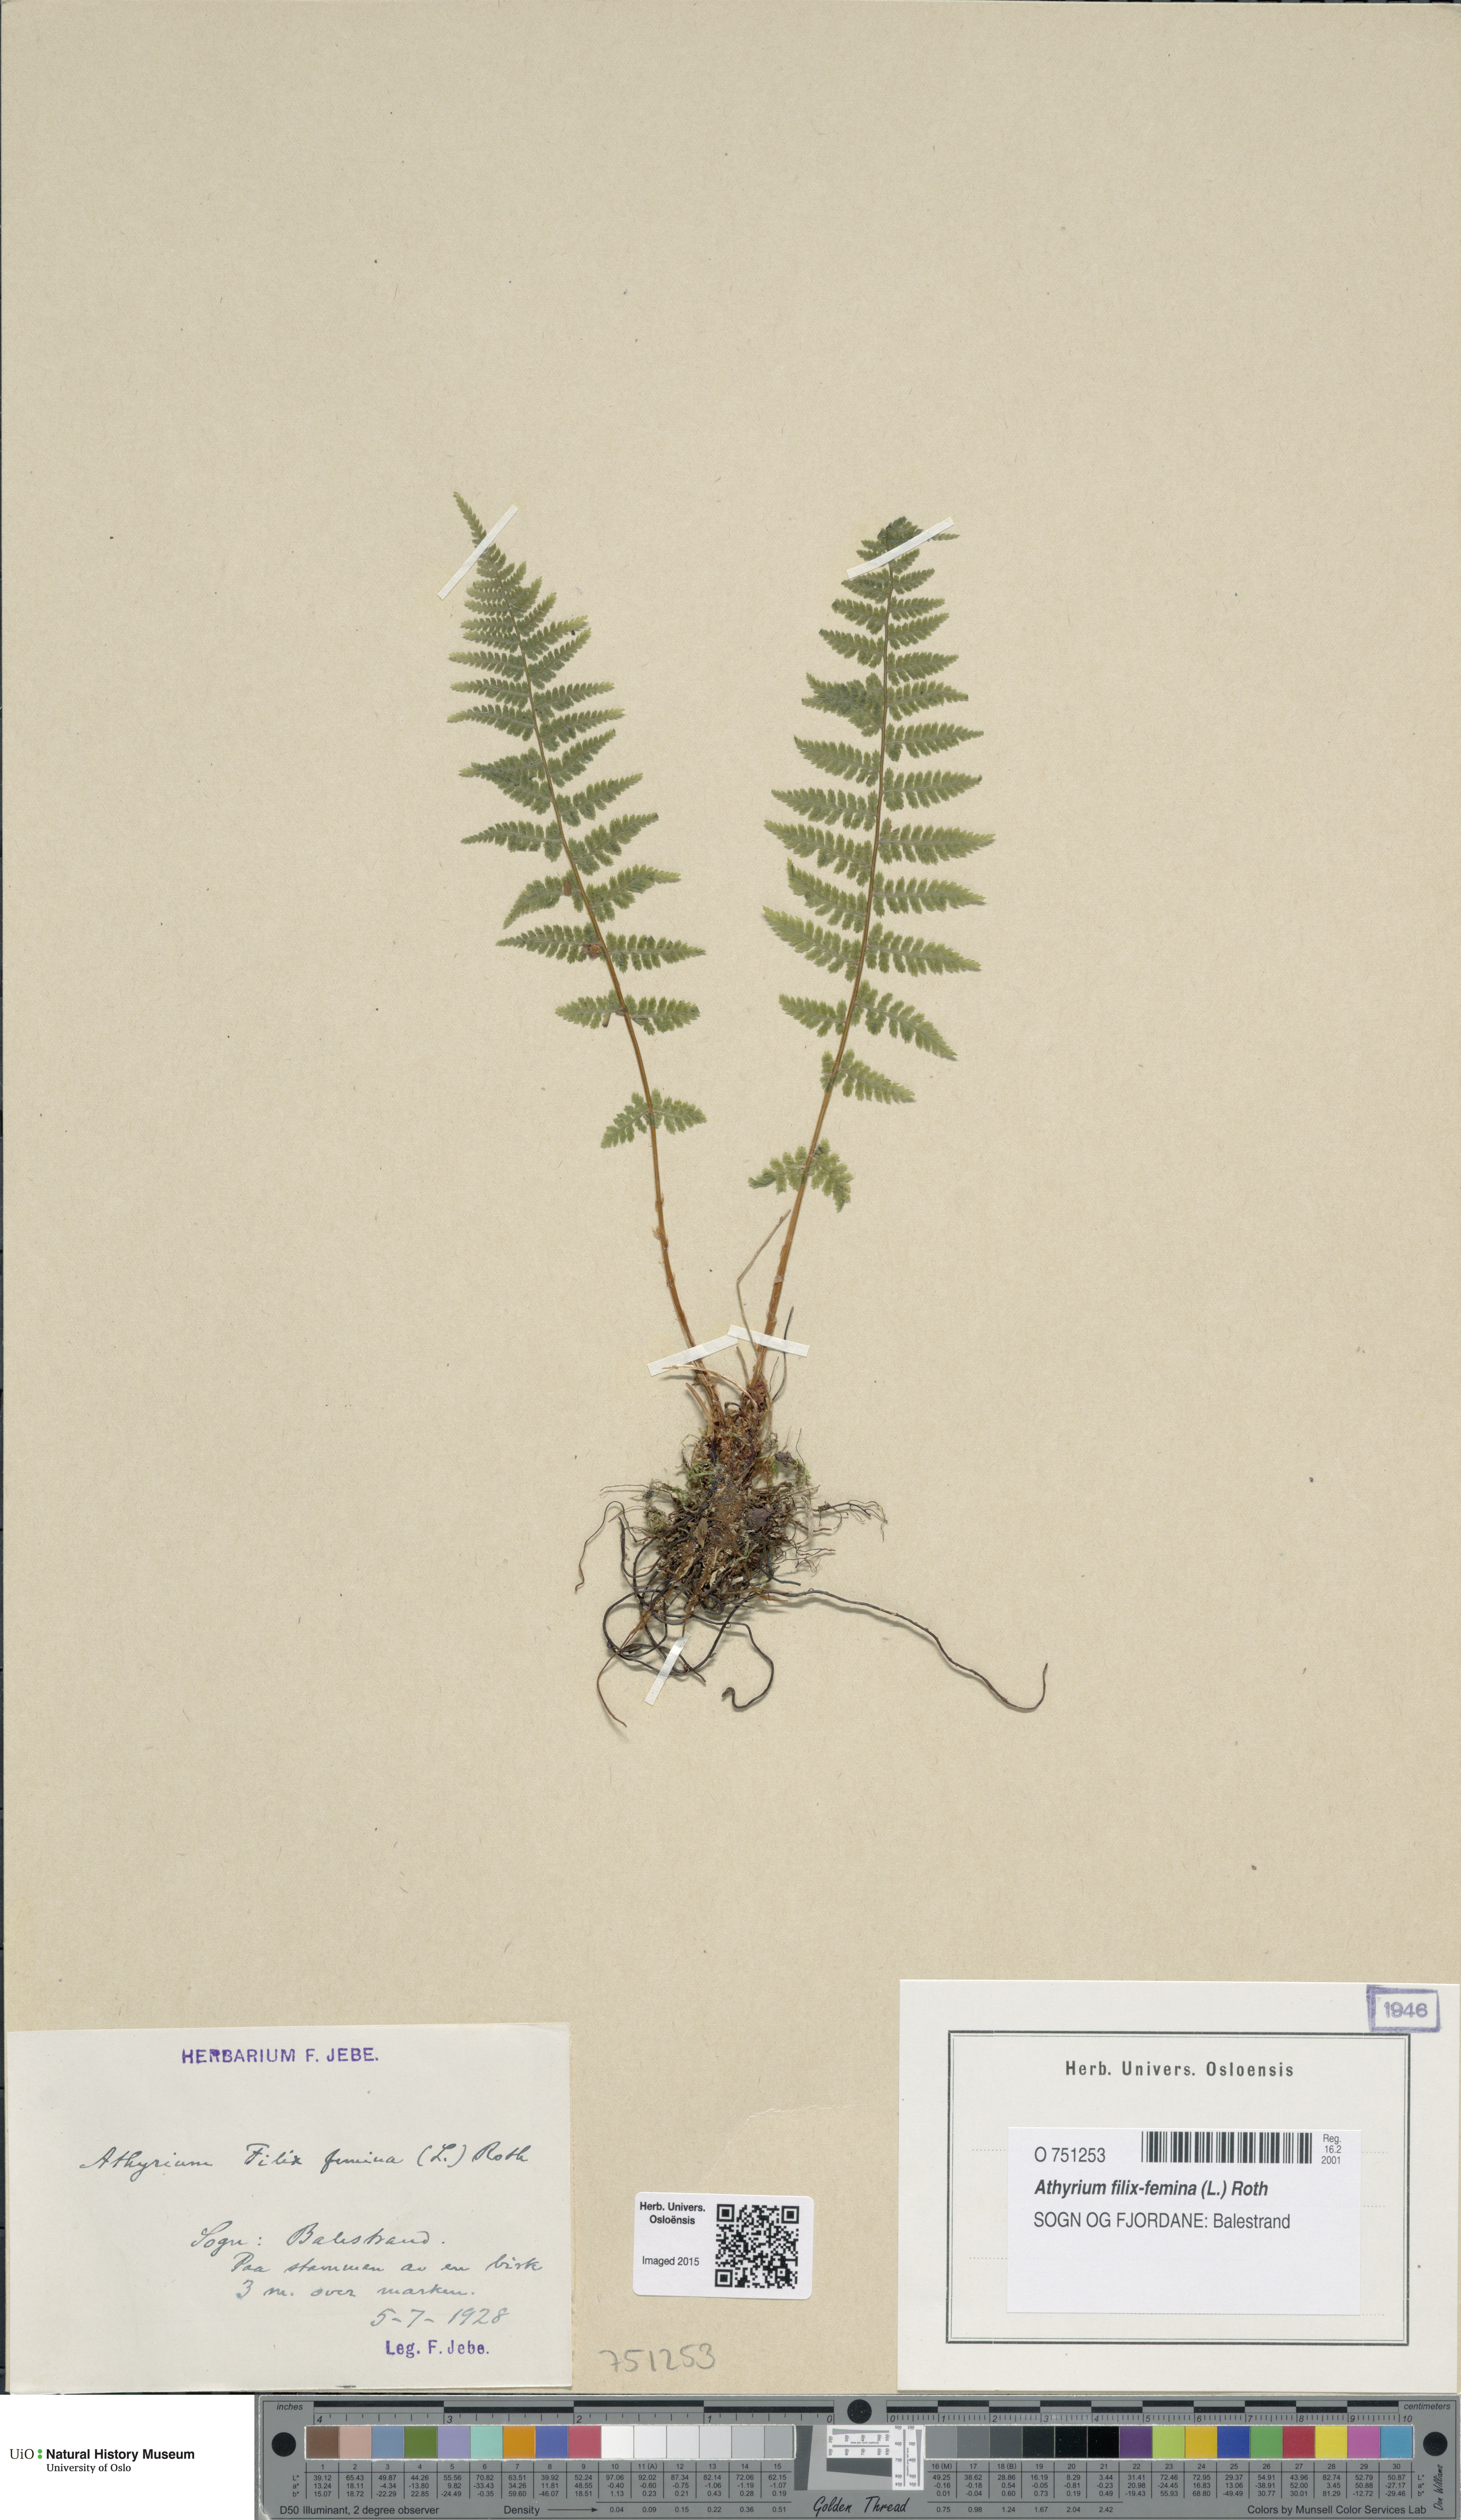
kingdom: Plantae
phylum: Tracheophyta
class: Polypodiopsida
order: Polypodiales
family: Athyriaceae
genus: Athyrium
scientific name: Athyrium filix-femina
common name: Lady fern
